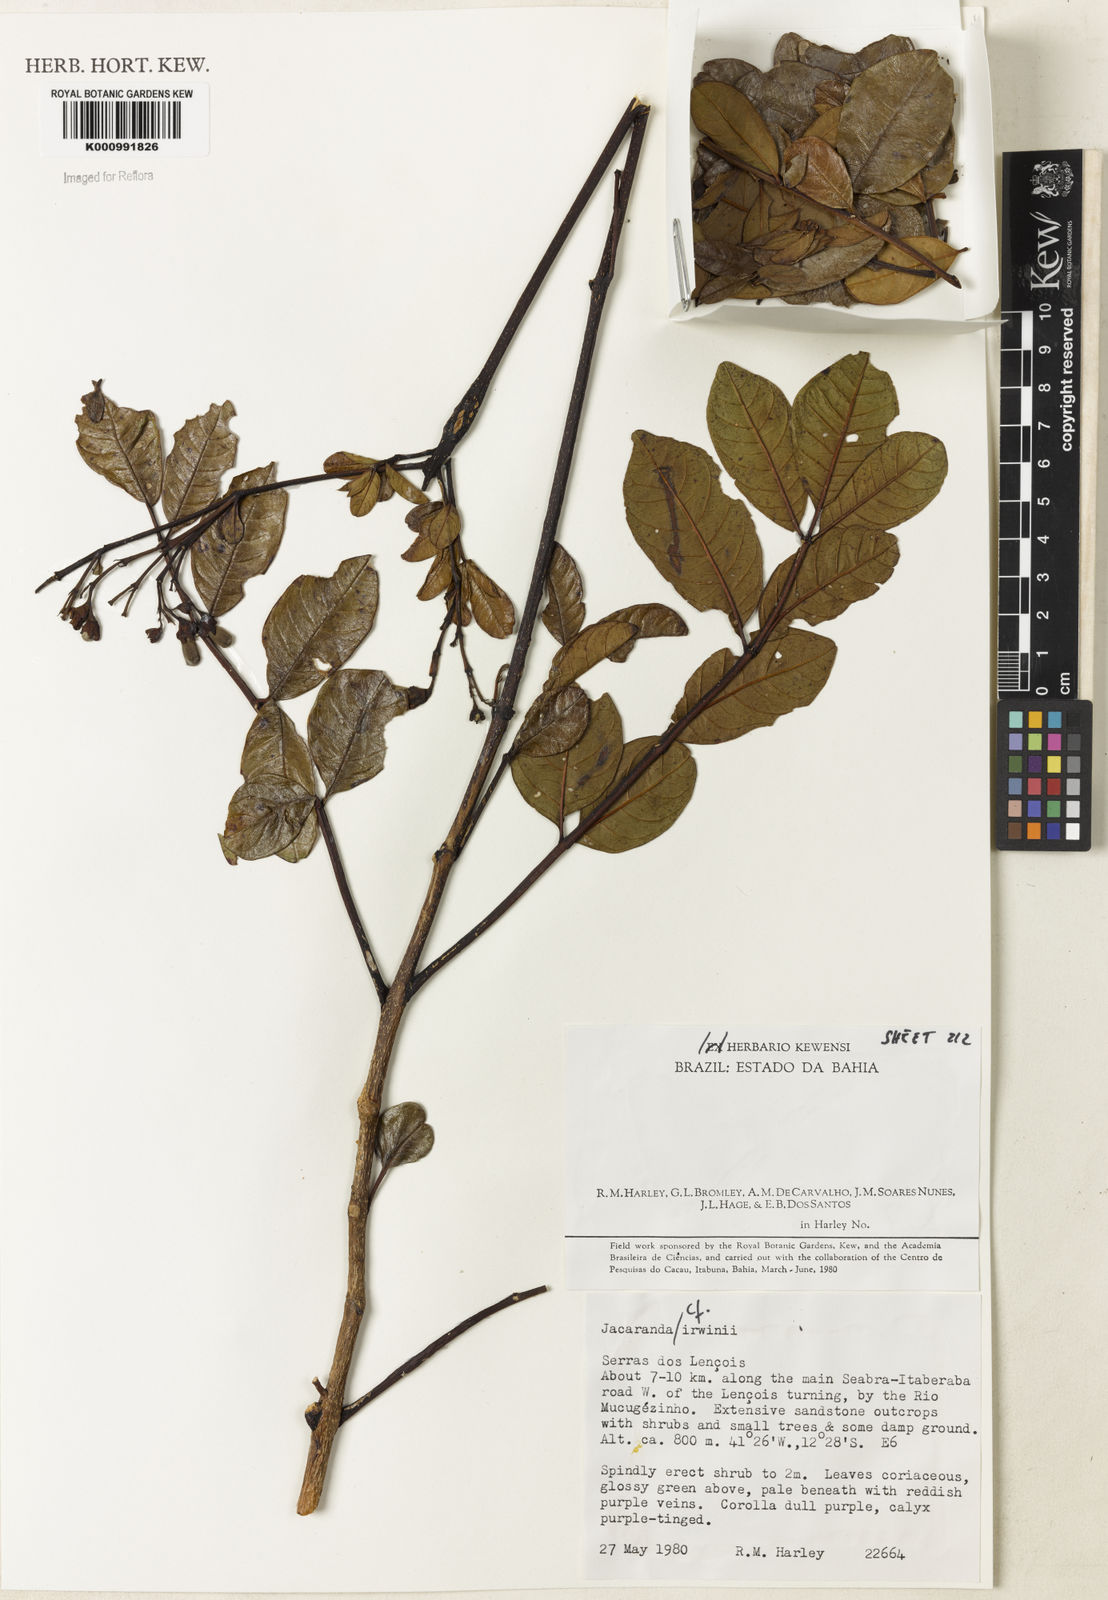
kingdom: Plantae
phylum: Tracheophyta
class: Magnoliopsida
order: Lamiales
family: Bignoniaceae
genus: Jacaranda
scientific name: Jacaranda irwinii
